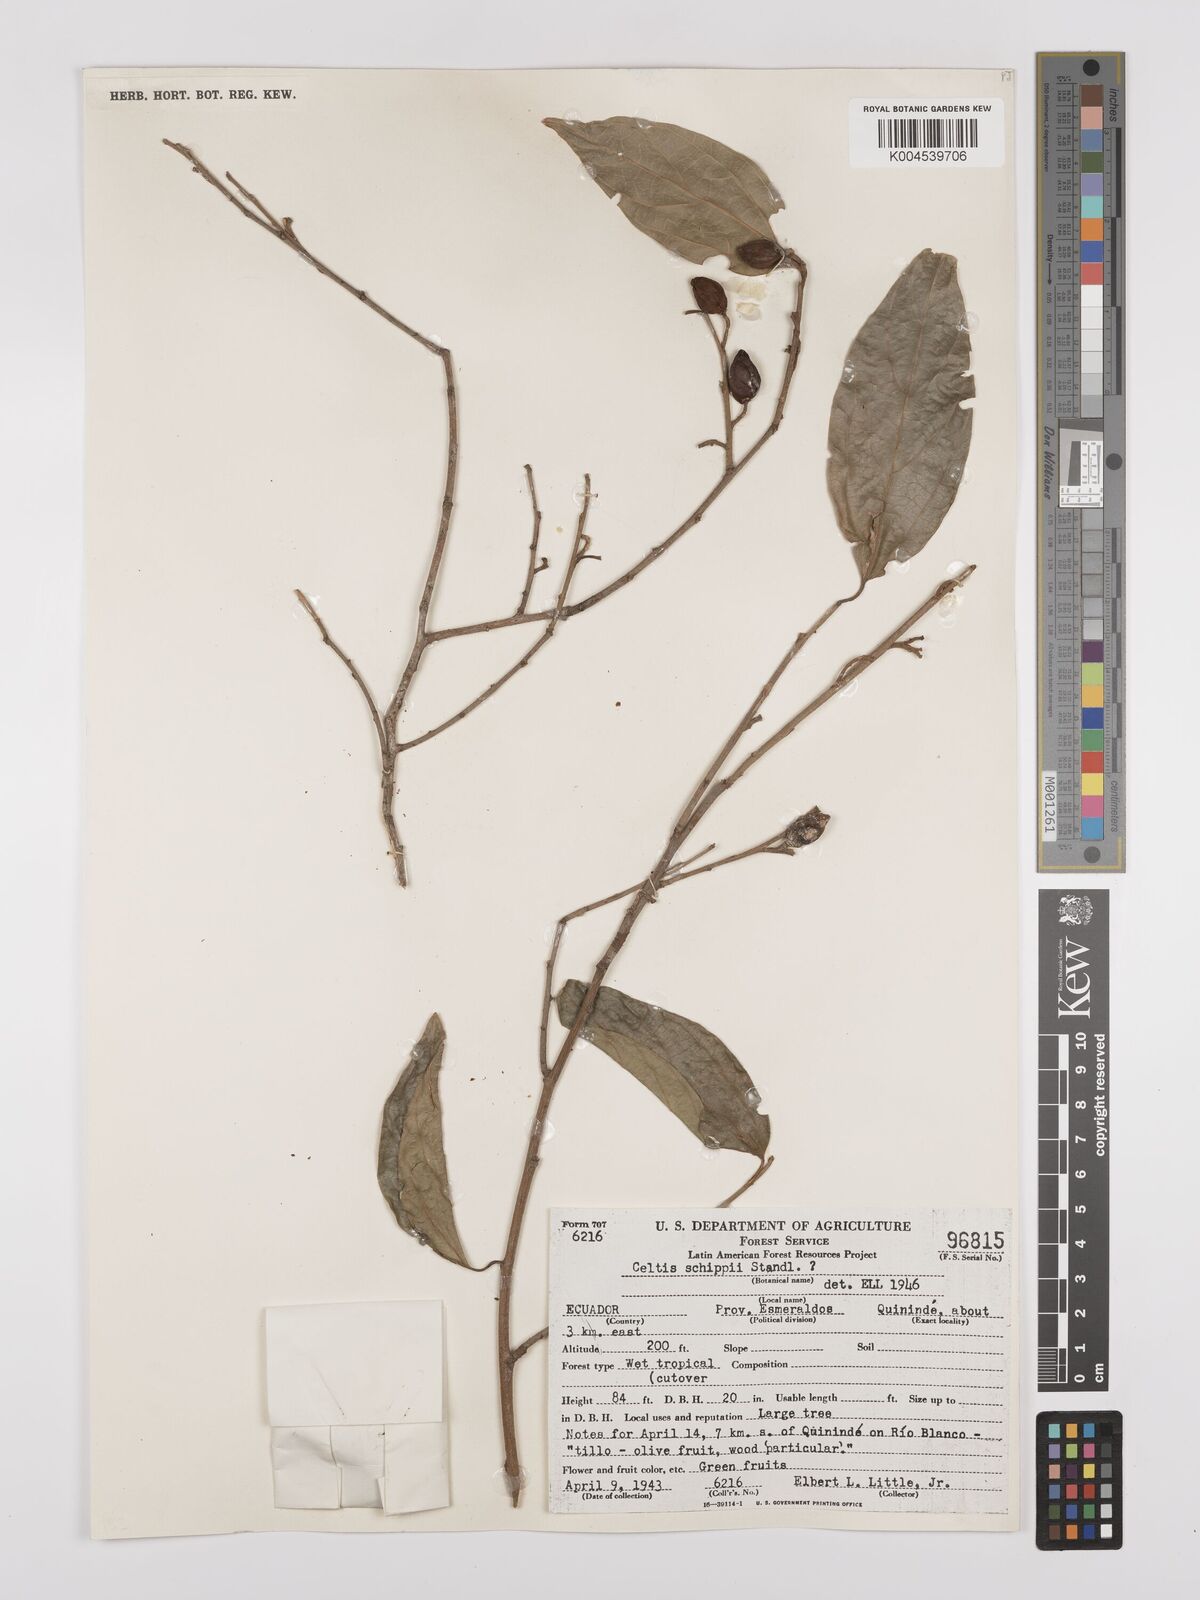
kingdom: Plantae
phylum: Tracheophyta
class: Magnoliopsida
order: Rosales
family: Cannabaceae
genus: Celtis
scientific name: Celtis schippii
